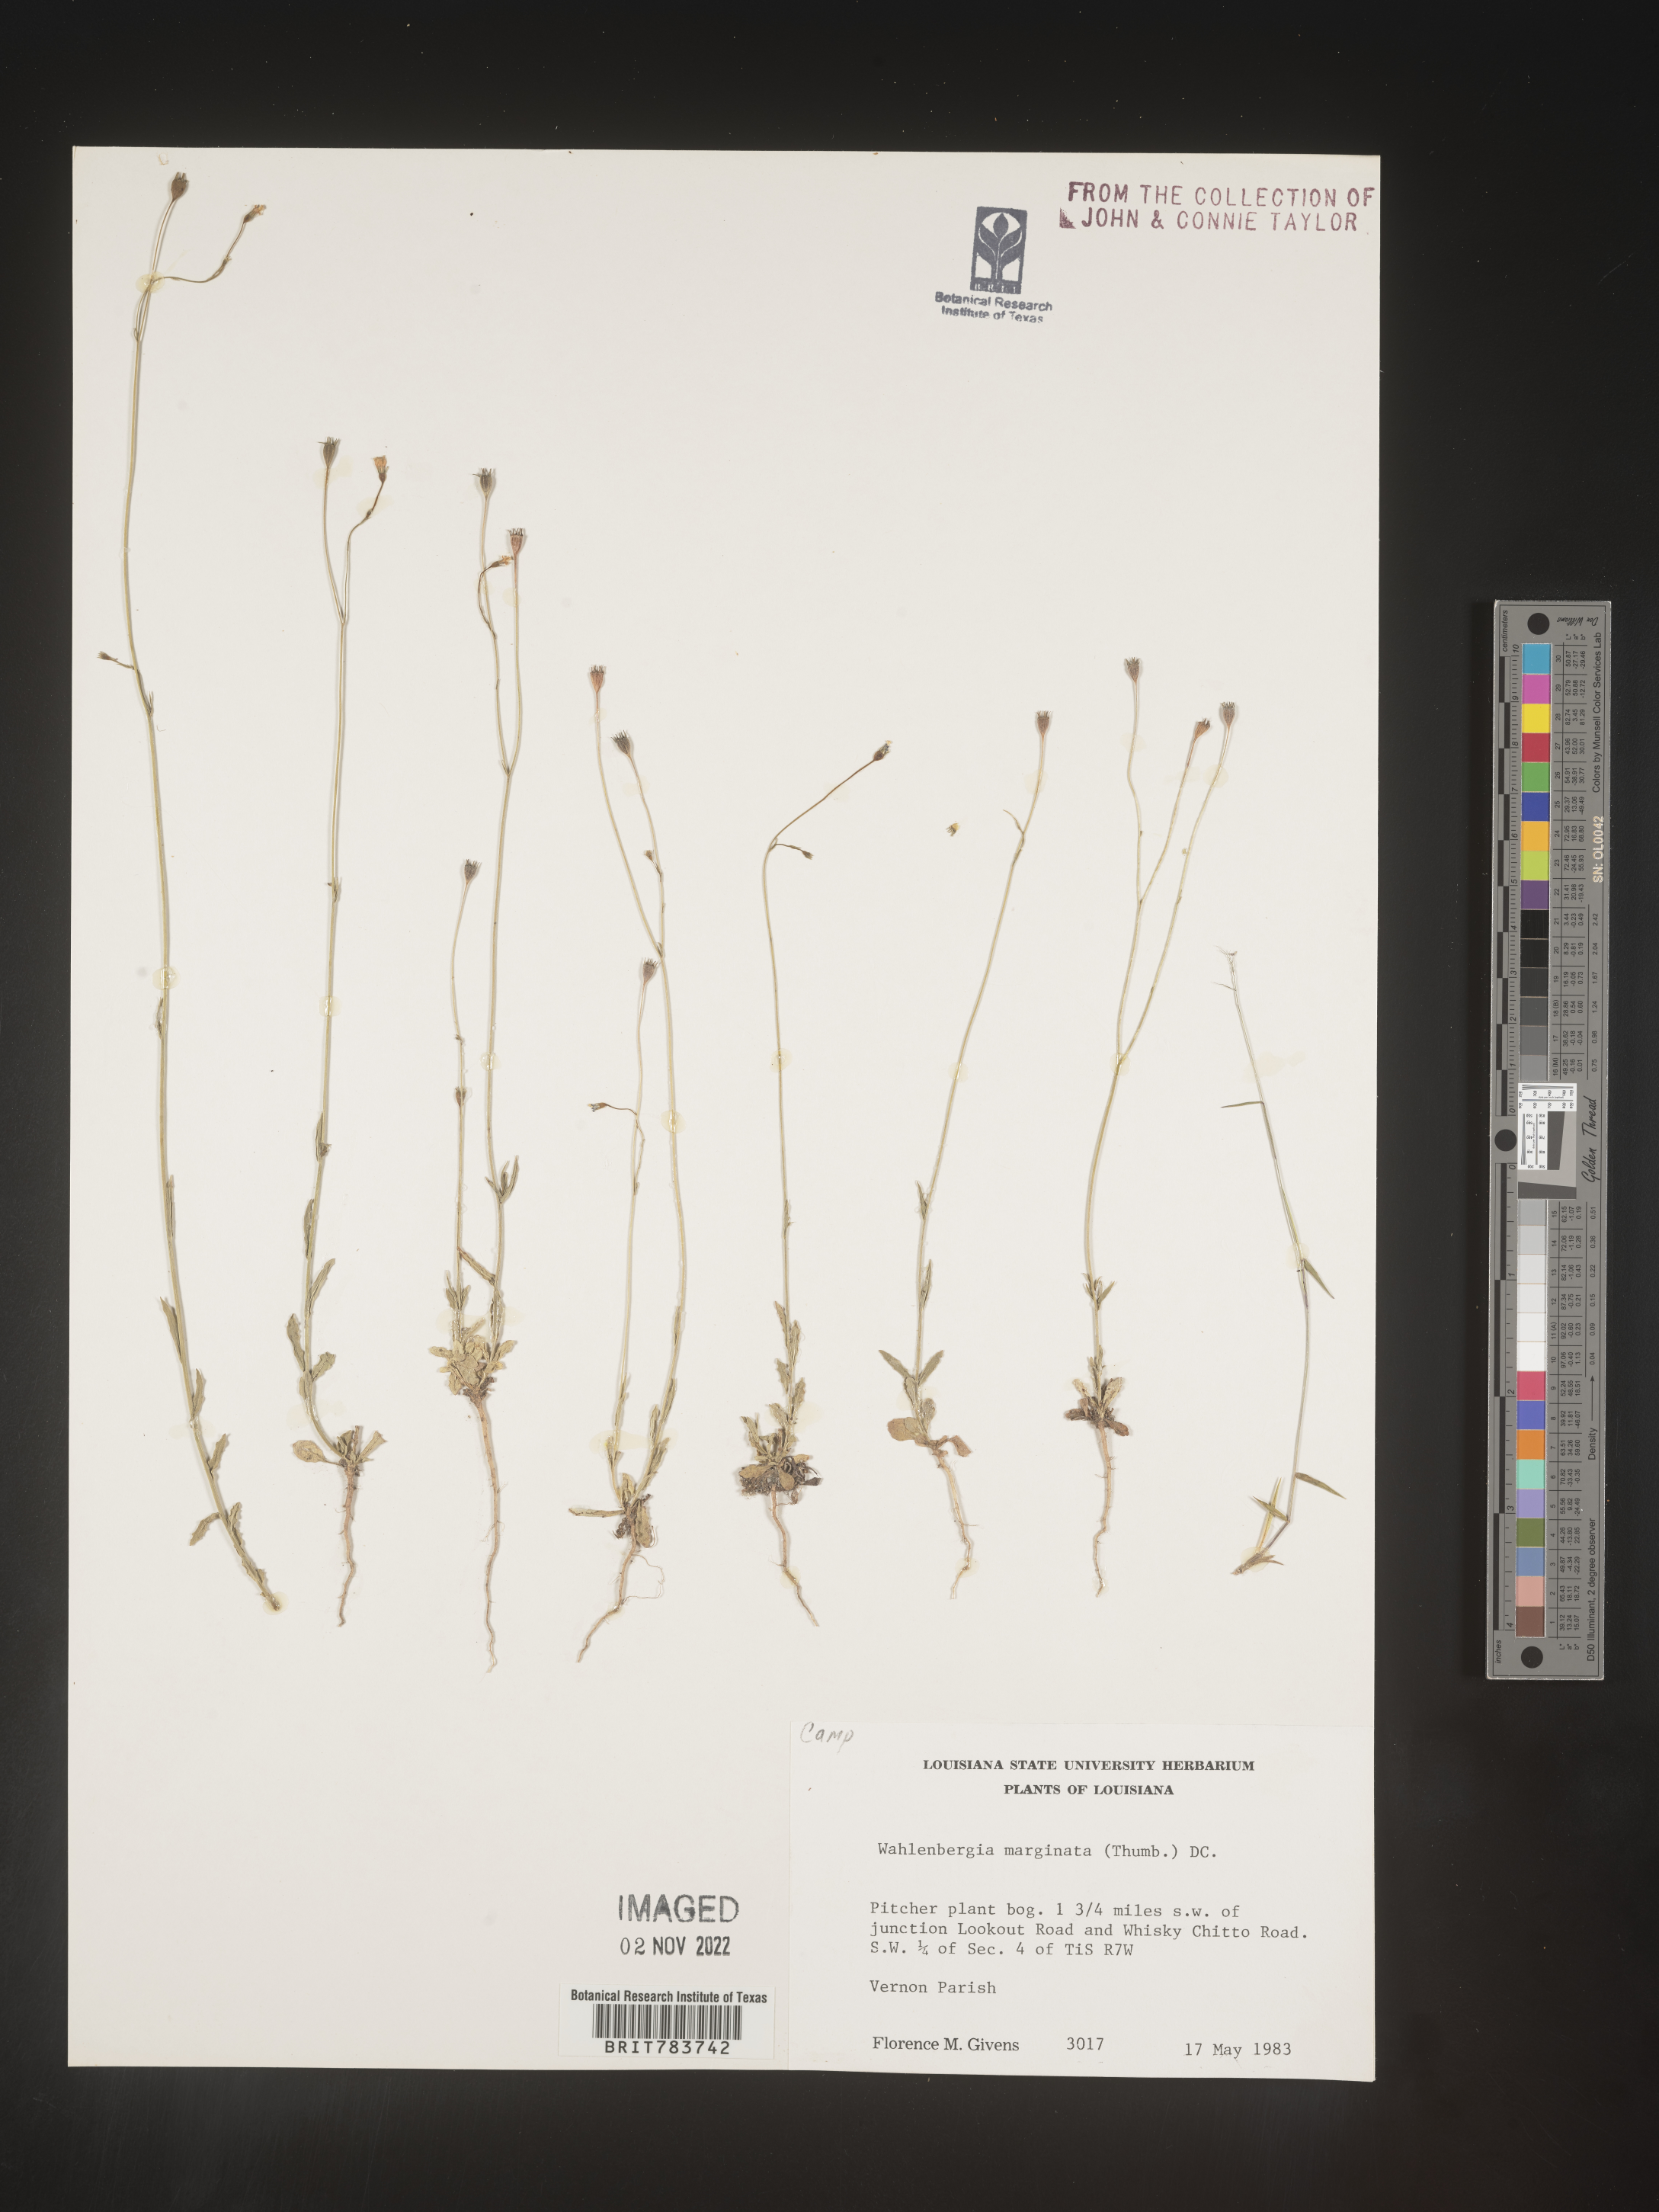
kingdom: Plantae
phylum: Tracheophyta
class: Magnoliopsida
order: Asterales
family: Campanulaceae
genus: Wahlenbergia
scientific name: Wahlenbergia marginata
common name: Southern rockbell
